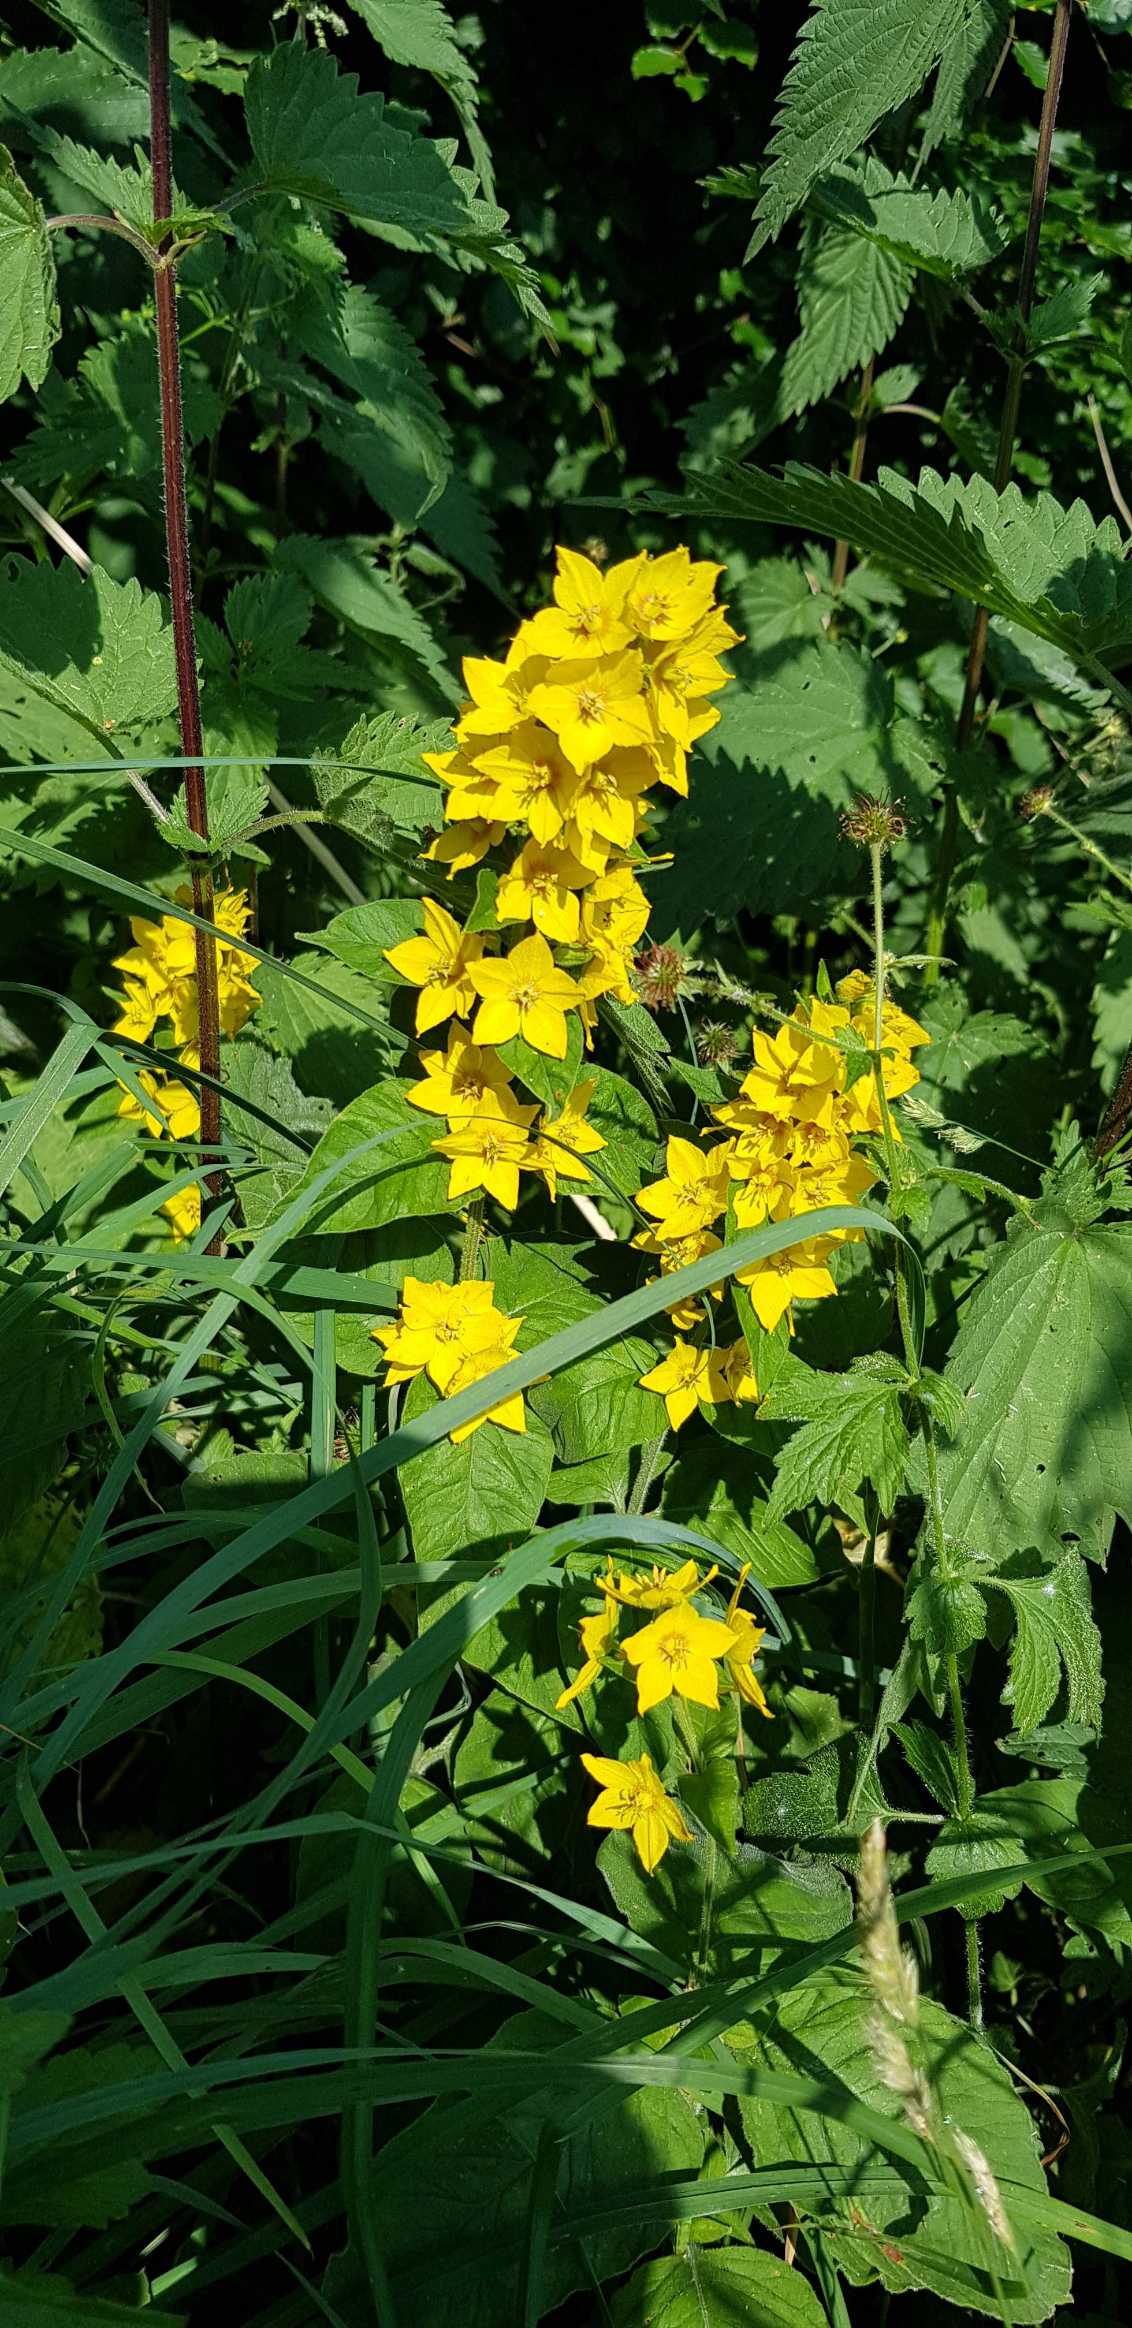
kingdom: Plantae
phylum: Tracheophyta
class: Magnoliopsida
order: Ericales
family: Primulaceae
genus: Lysimachia
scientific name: Lysimachia punctata
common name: Prikbladet fredløs
